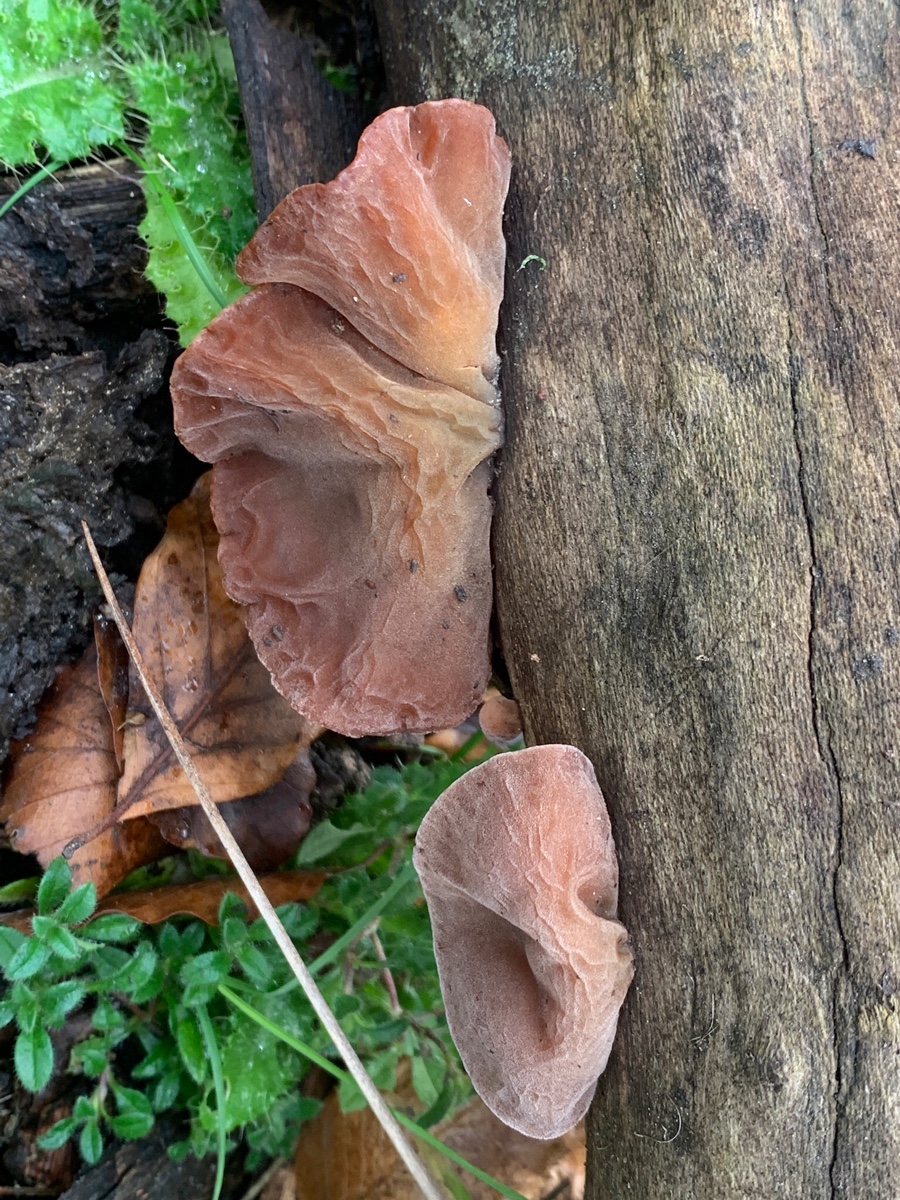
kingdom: Fungi
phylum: Basidiomycota
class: Agaricomycetes
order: Auriculariales
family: Auriculariaceae
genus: Auricularia
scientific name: Auricularia auricula-judae
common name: almindelig judasøre
